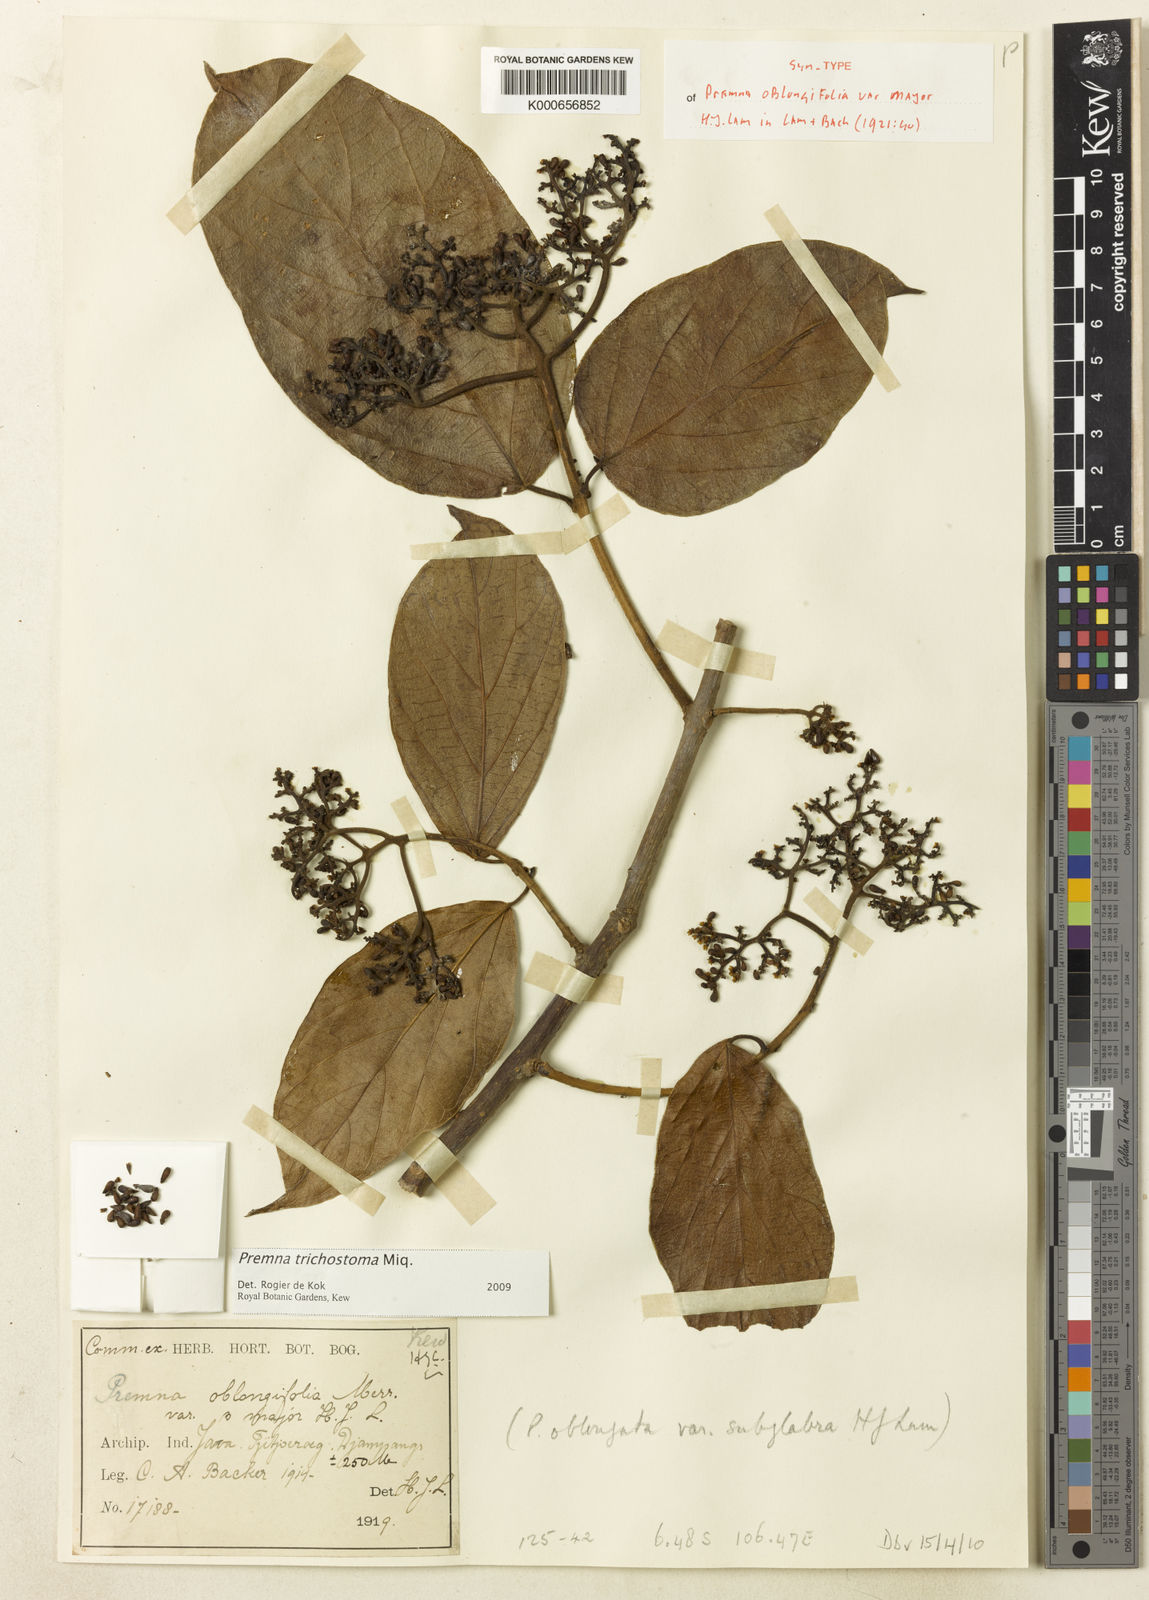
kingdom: Plantae
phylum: Tracheophyta
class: Magnoliopsida
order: Lamiales
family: Lamiaceae
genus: Premna
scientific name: Premna trichostoma
